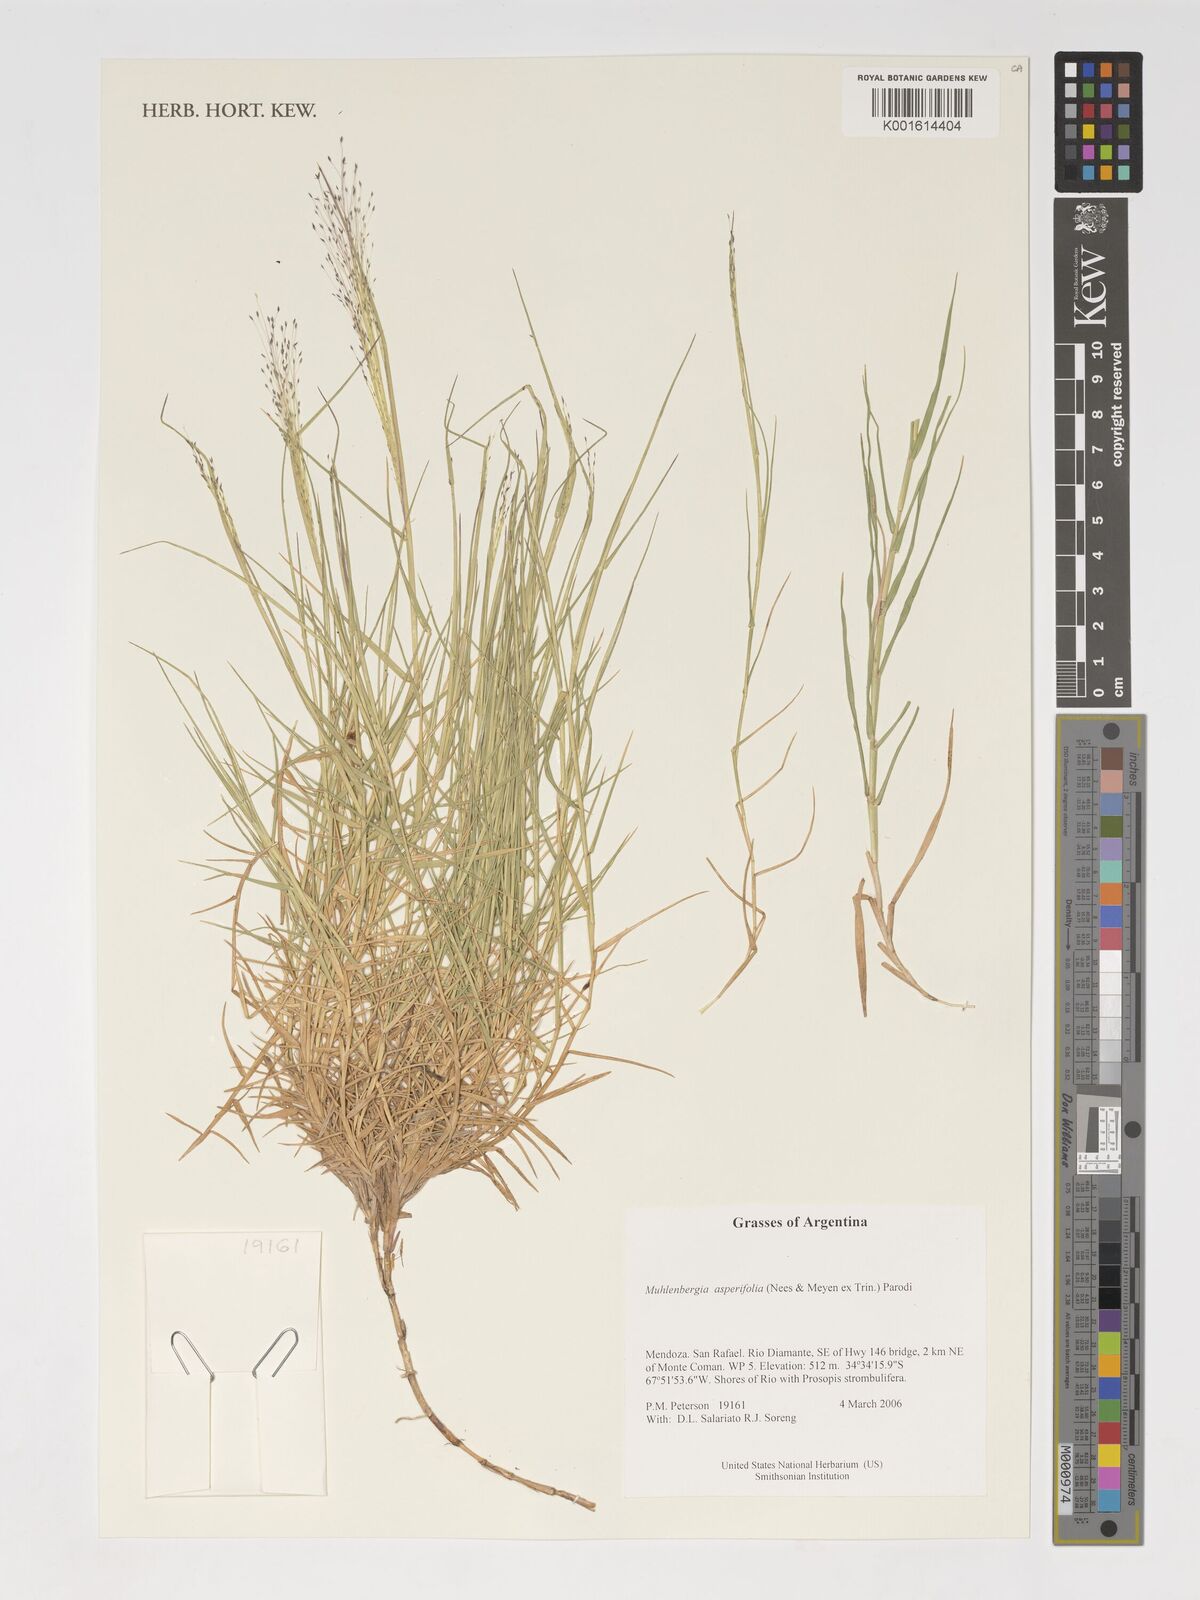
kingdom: Plantae
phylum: Tracheophyta
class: Liliopsida
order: Poales
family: Poaceae
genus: Muhlenbergia
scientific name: Muhlenbergia asperifolia
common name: Alkali muhly
